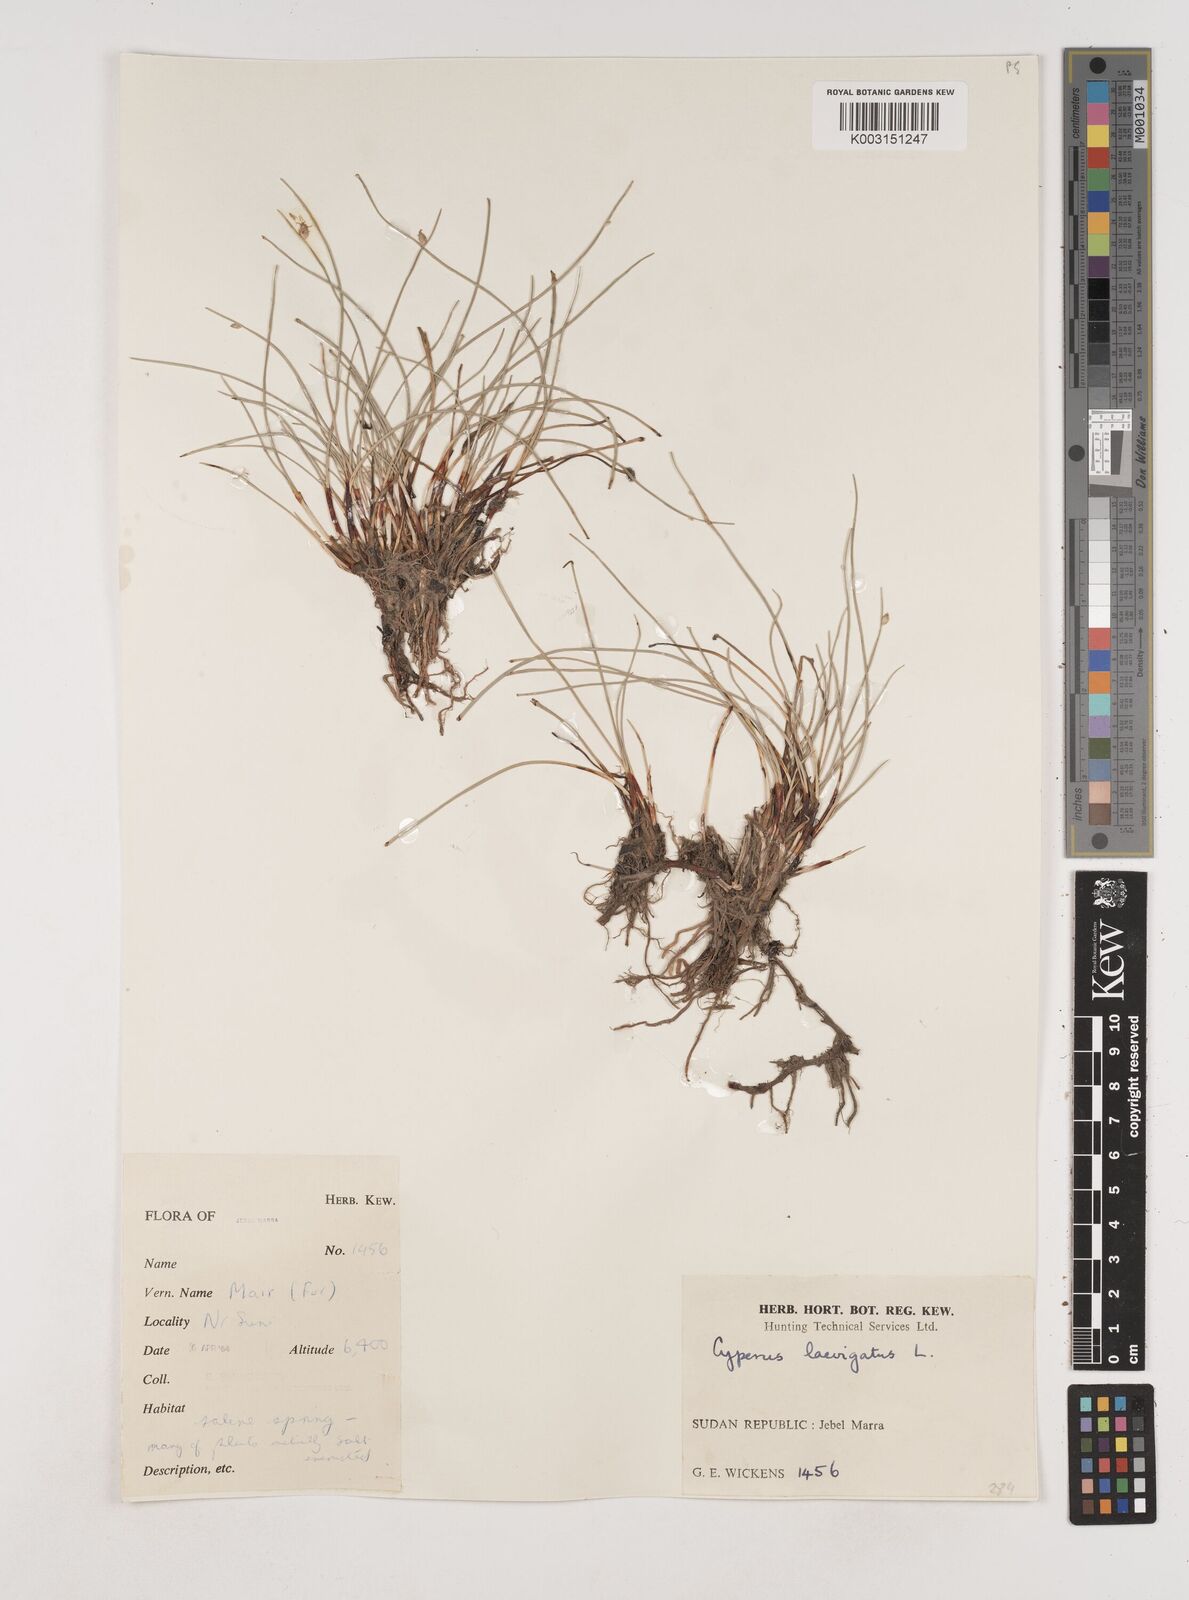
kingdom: Plantae
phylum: Tracheophyta
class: Liliopsida
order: Poales
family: Cyperaceae
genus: Cyperus
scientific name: Cyperus laevigatus
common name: Smooth flat sedge
